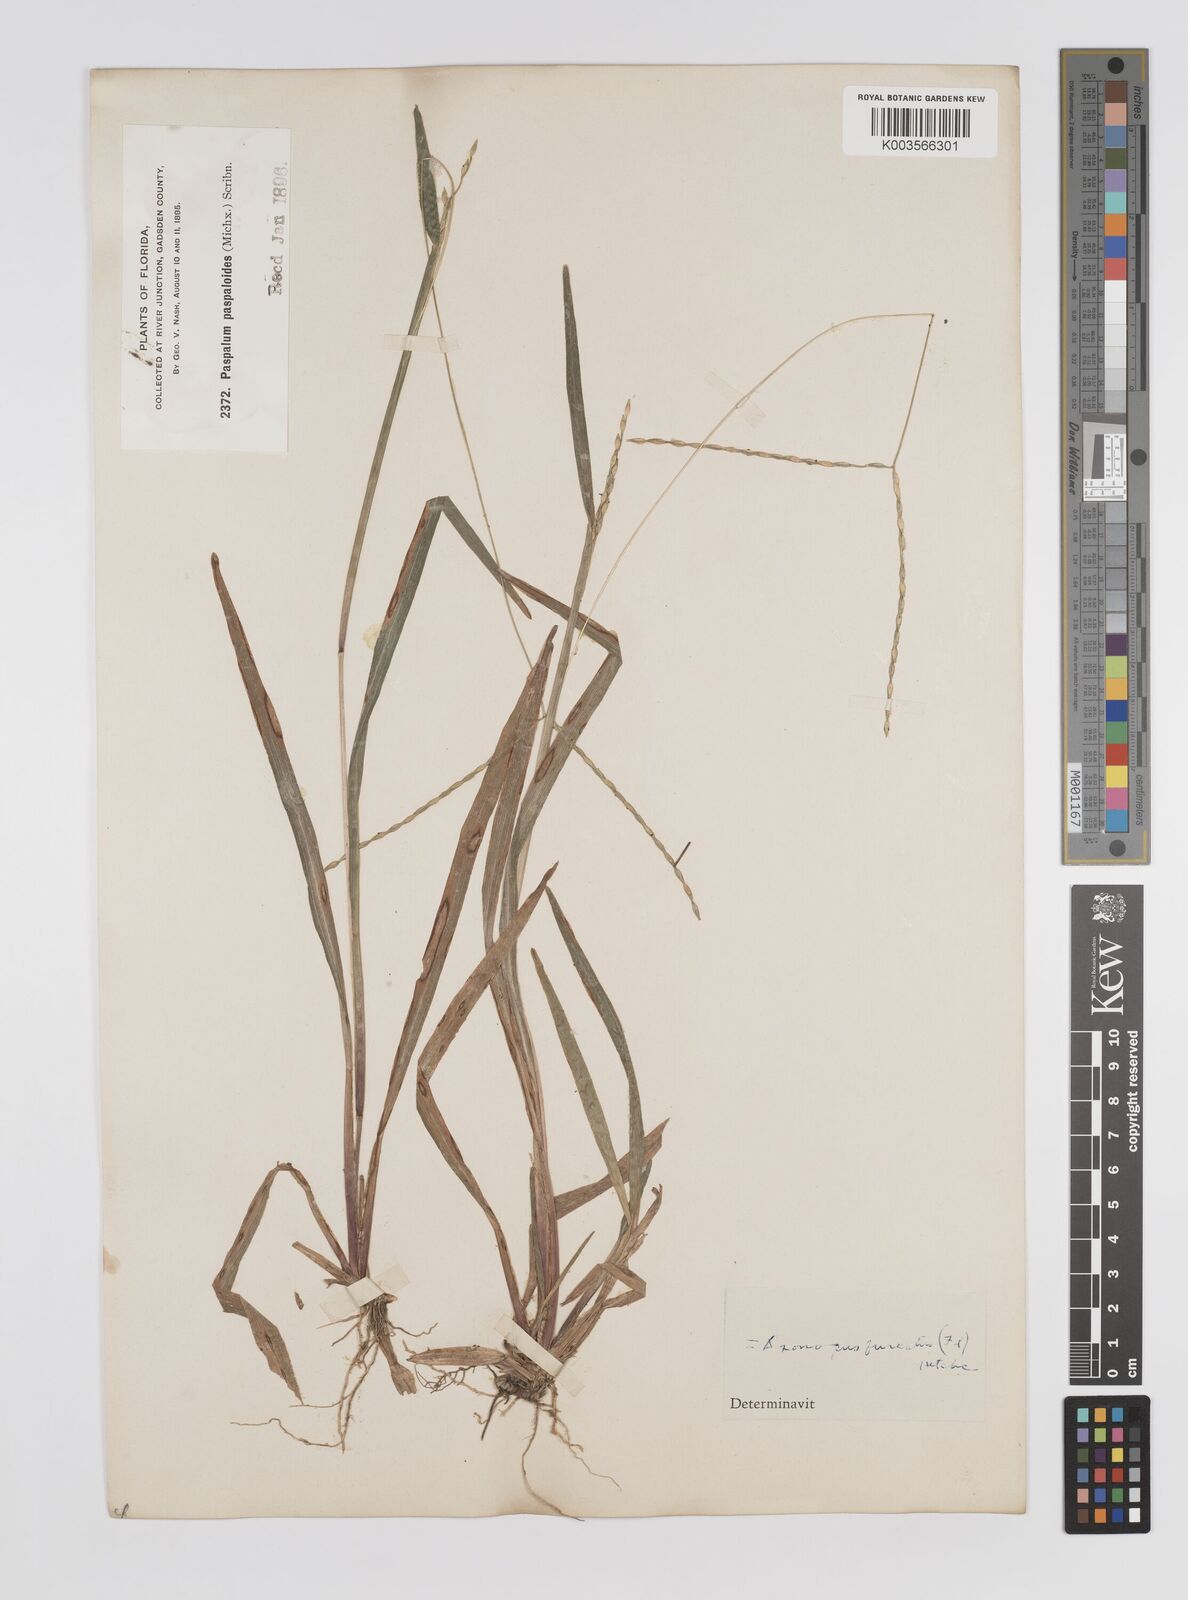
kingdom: Plantae
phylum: Tracheophyta
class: Liliopsida
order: Poales
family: Poaceae
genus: Axonopus
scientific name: Axonopus furcatus
